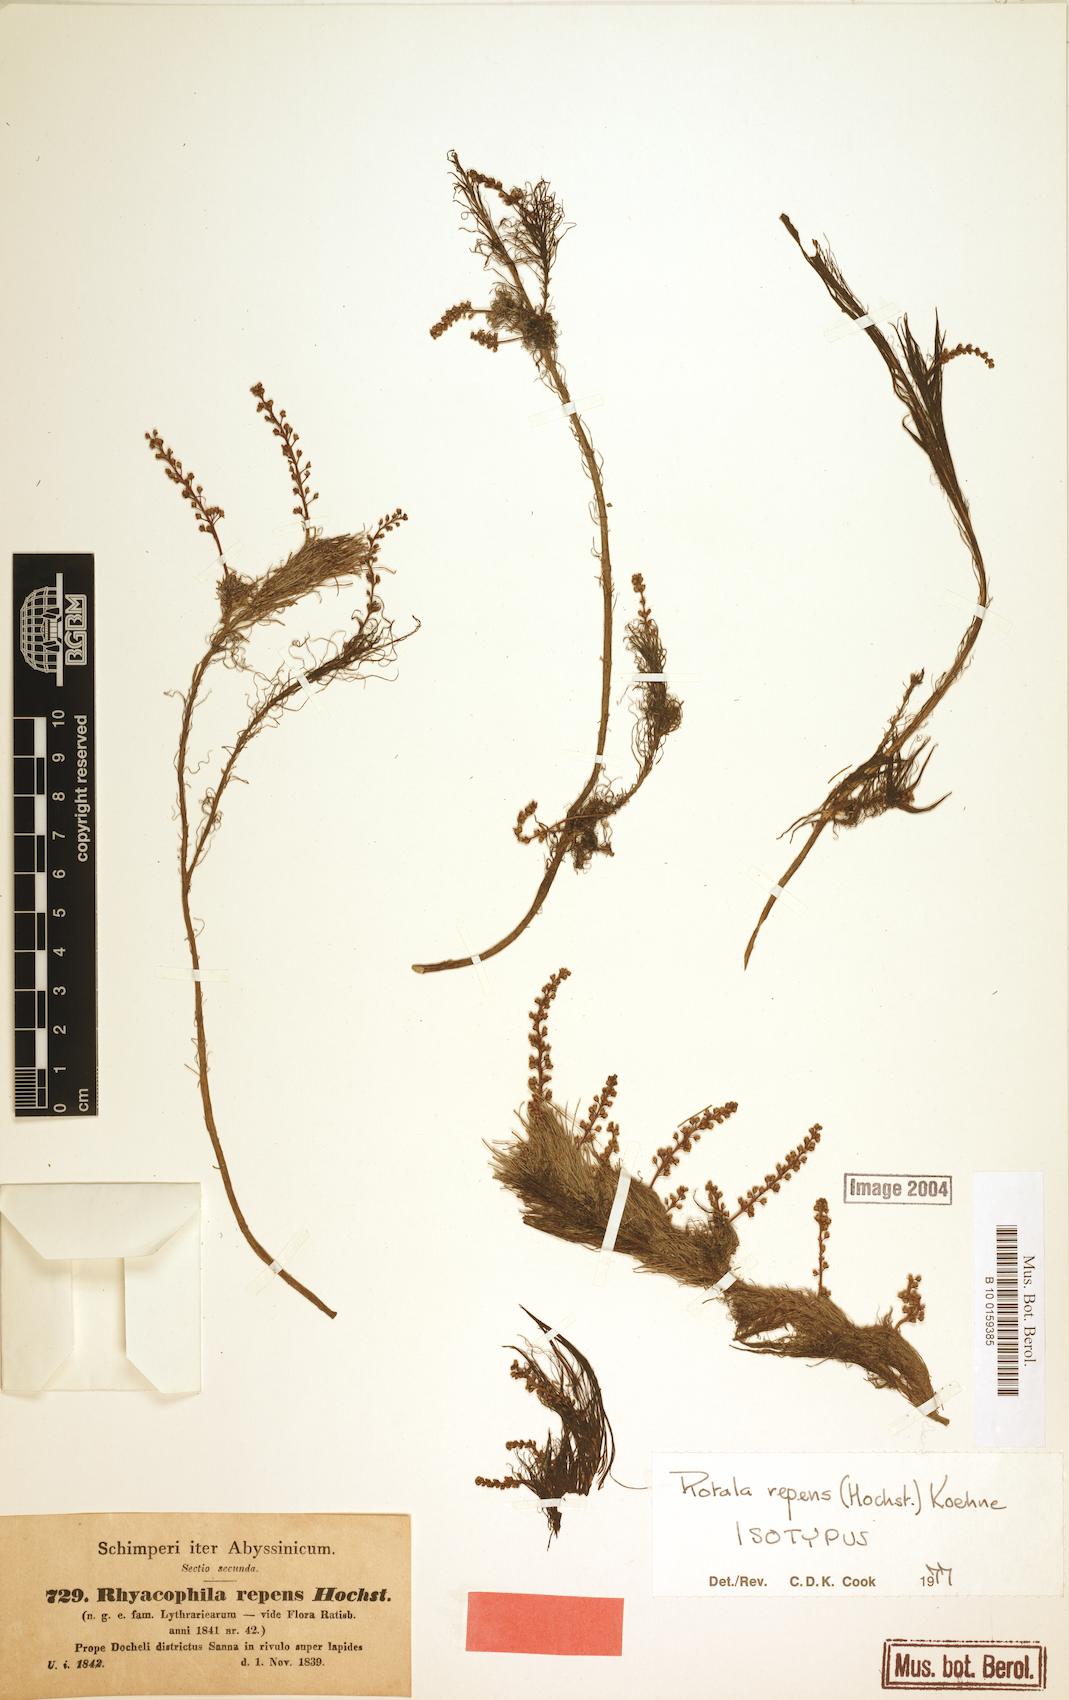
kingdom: Plantae
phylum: Tracheophyta
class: Magnoliopsida
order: Myrtales
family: Lythraceae
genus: Rotala
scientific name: Rotala repens
